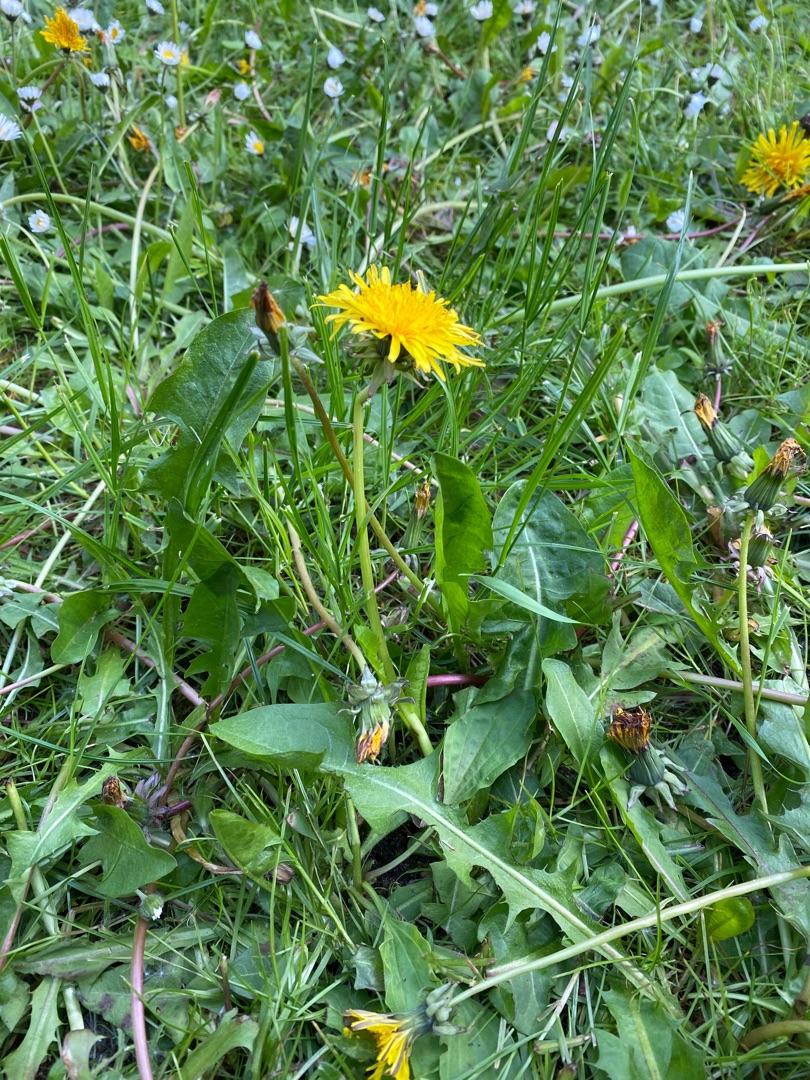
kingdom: Plantae
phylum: Tracheophyta
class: Magnoliopsida
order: Asterales
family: Asteraceae
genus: Taraxacum
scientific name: Taraxacum
